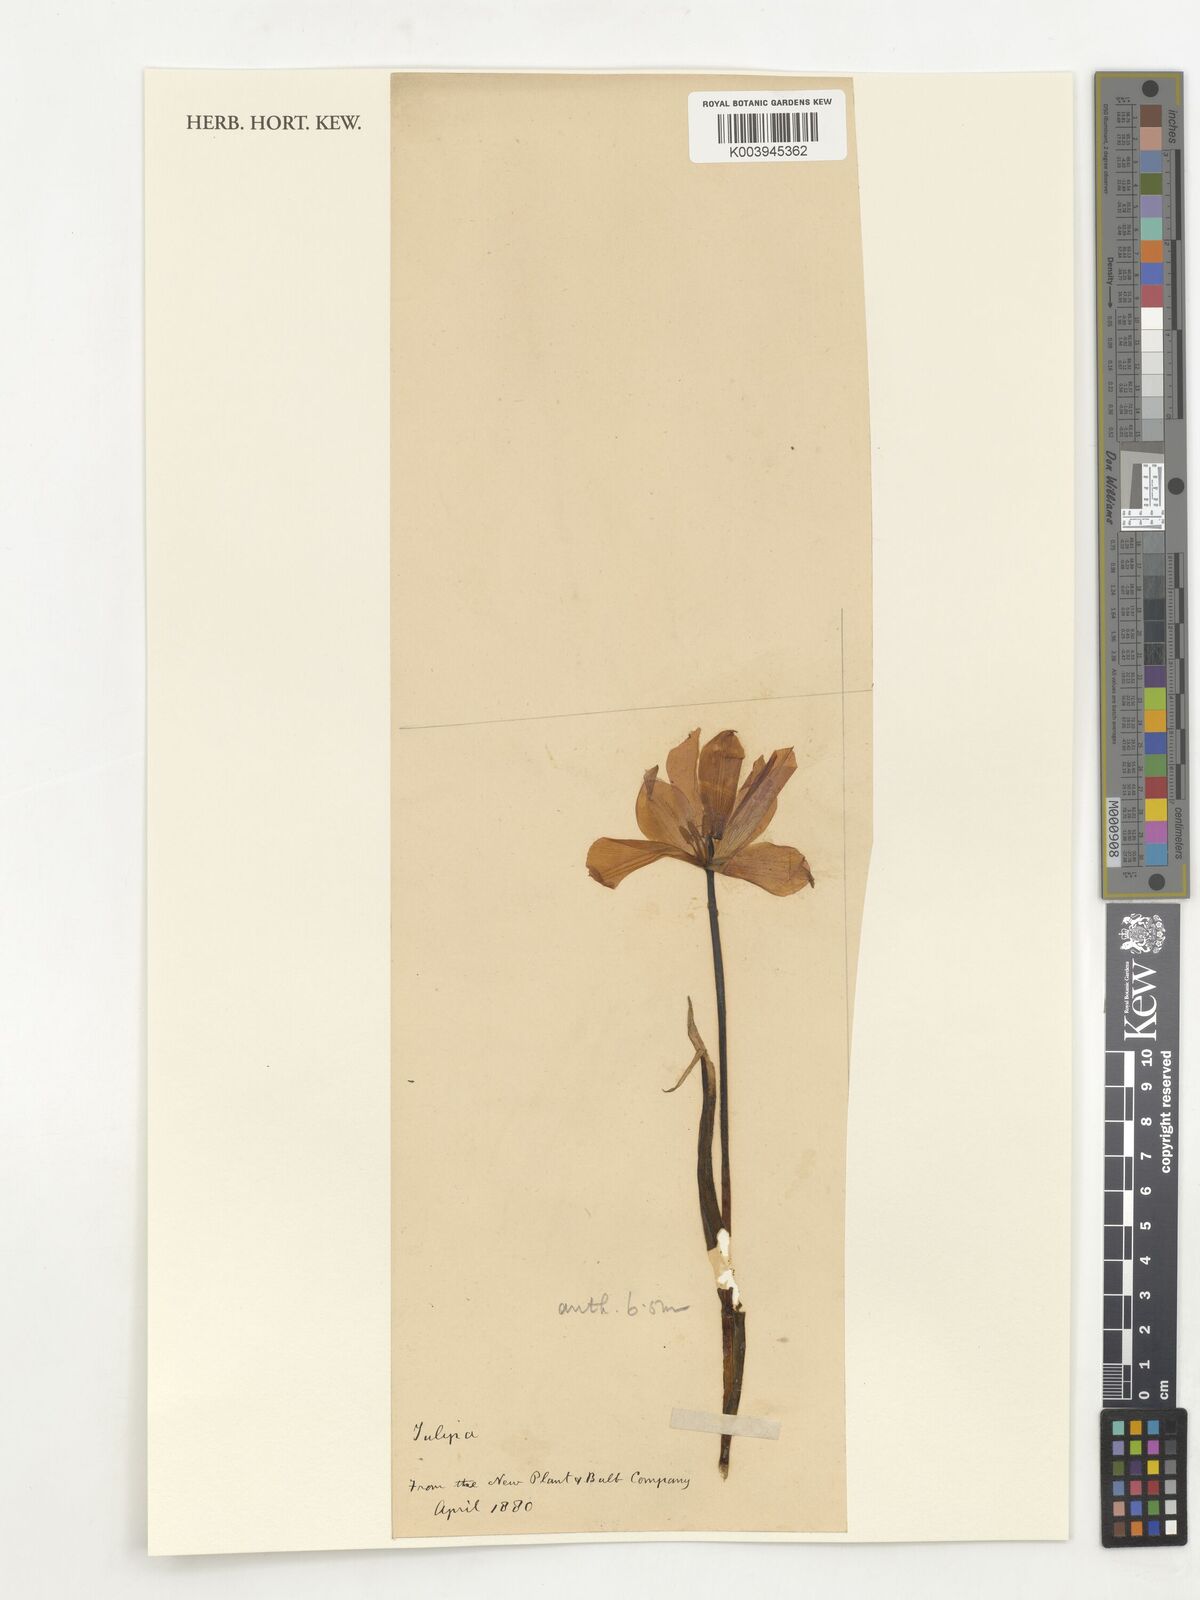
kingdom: Plantae
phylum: Tracheophyta
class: Liliopsida
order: Liliales
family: Liliaceae
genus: Tulipa
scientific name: Tulipa
